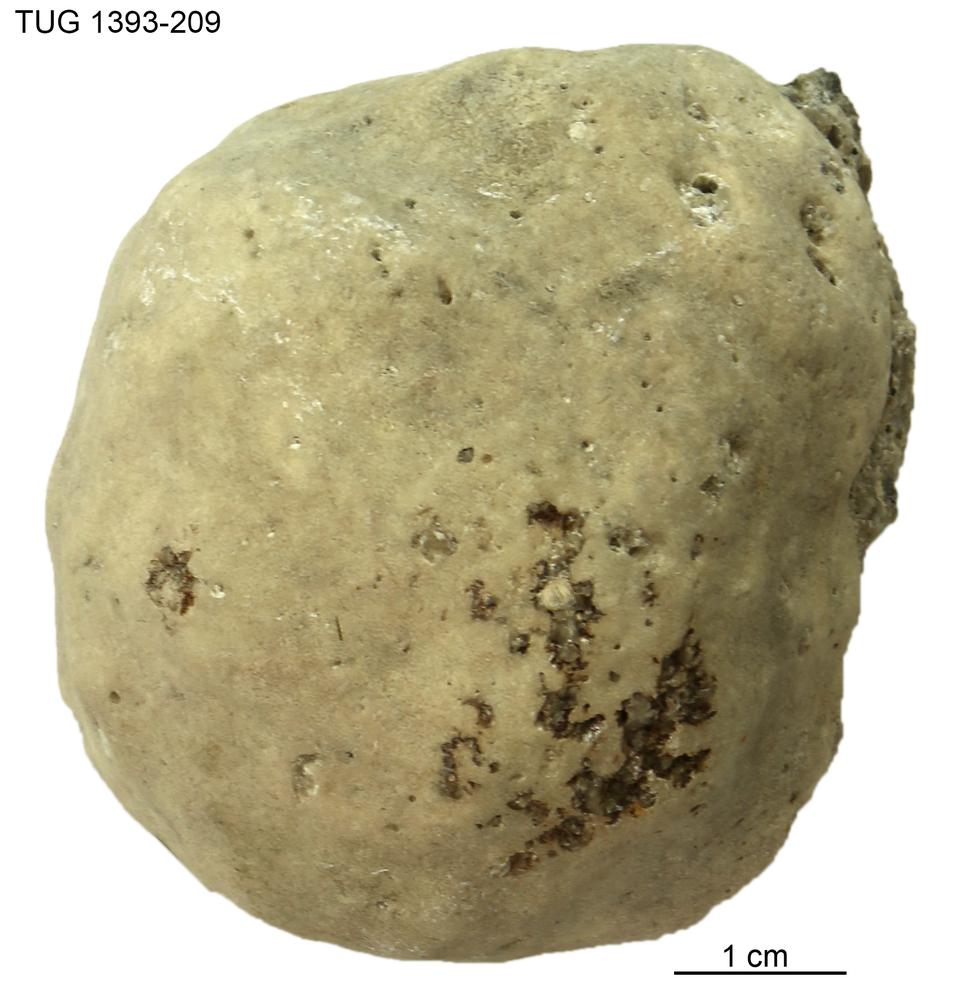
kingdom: Animalia
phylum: Porifera
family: Chaetetidae
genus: Solenopora
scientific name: Solenopora
